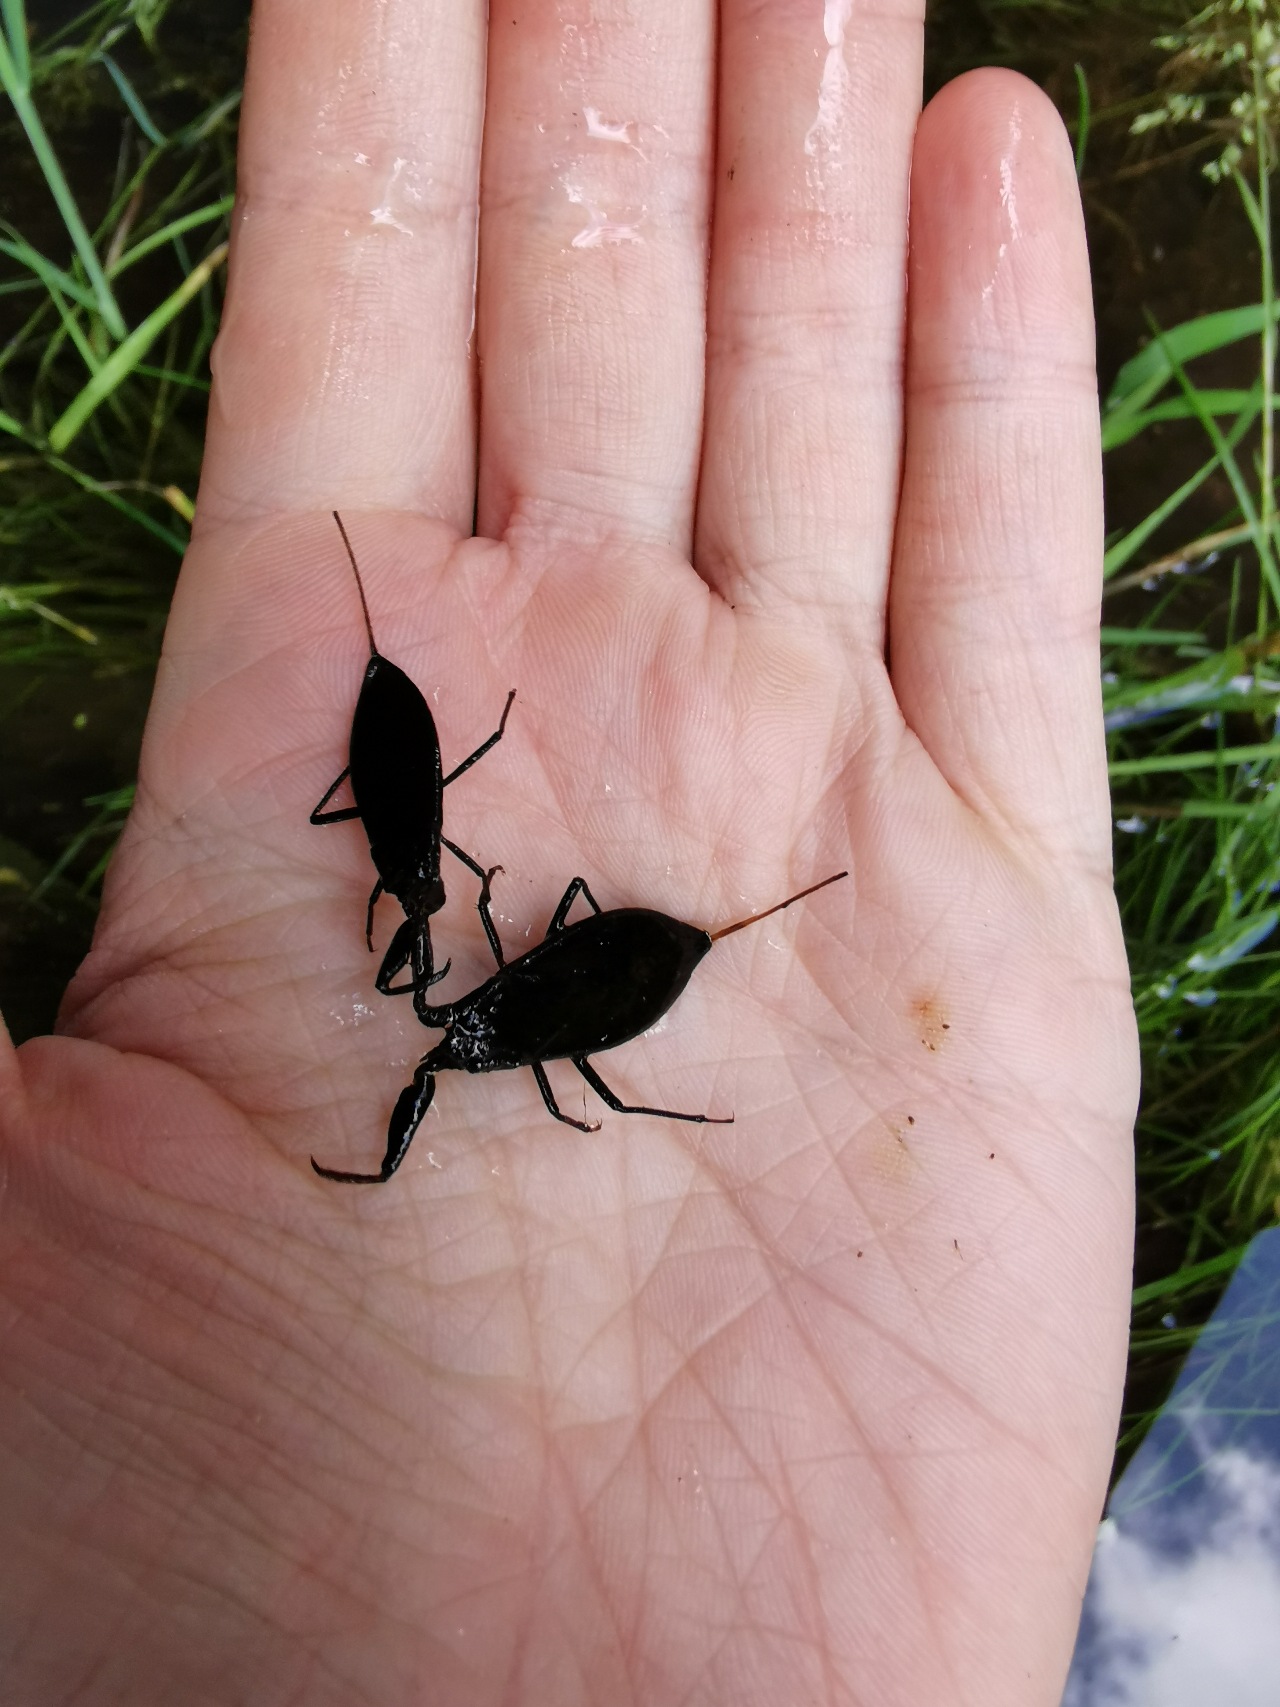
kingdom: Animalia
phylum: Arthropoda
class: Insecta
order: Hemiptera
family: Nepidae
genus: Nepa
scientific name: Nepa cinerea
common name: Skorpiontæge
